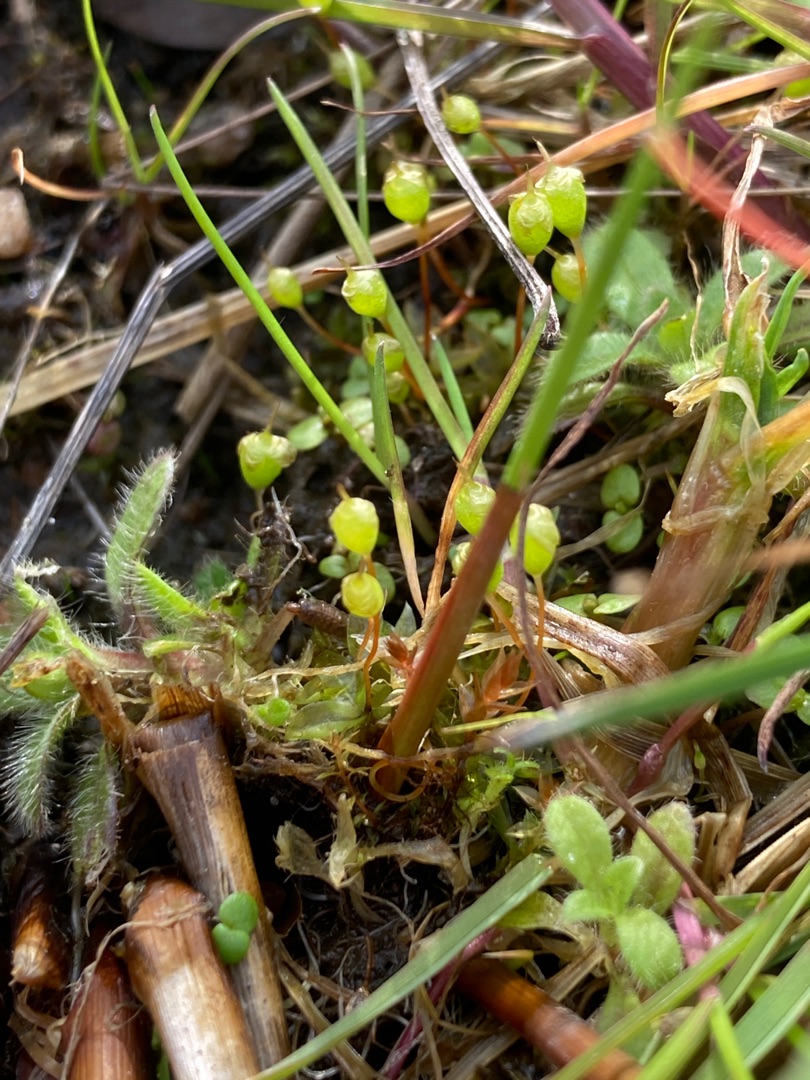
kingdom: Plantae
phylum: Bryophyta
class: Bryopsida
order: Funariales
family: Funariaceae
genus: Physcomitrium
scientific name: Physcomitrium pyriforme
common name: Almindelig pærekapsel
